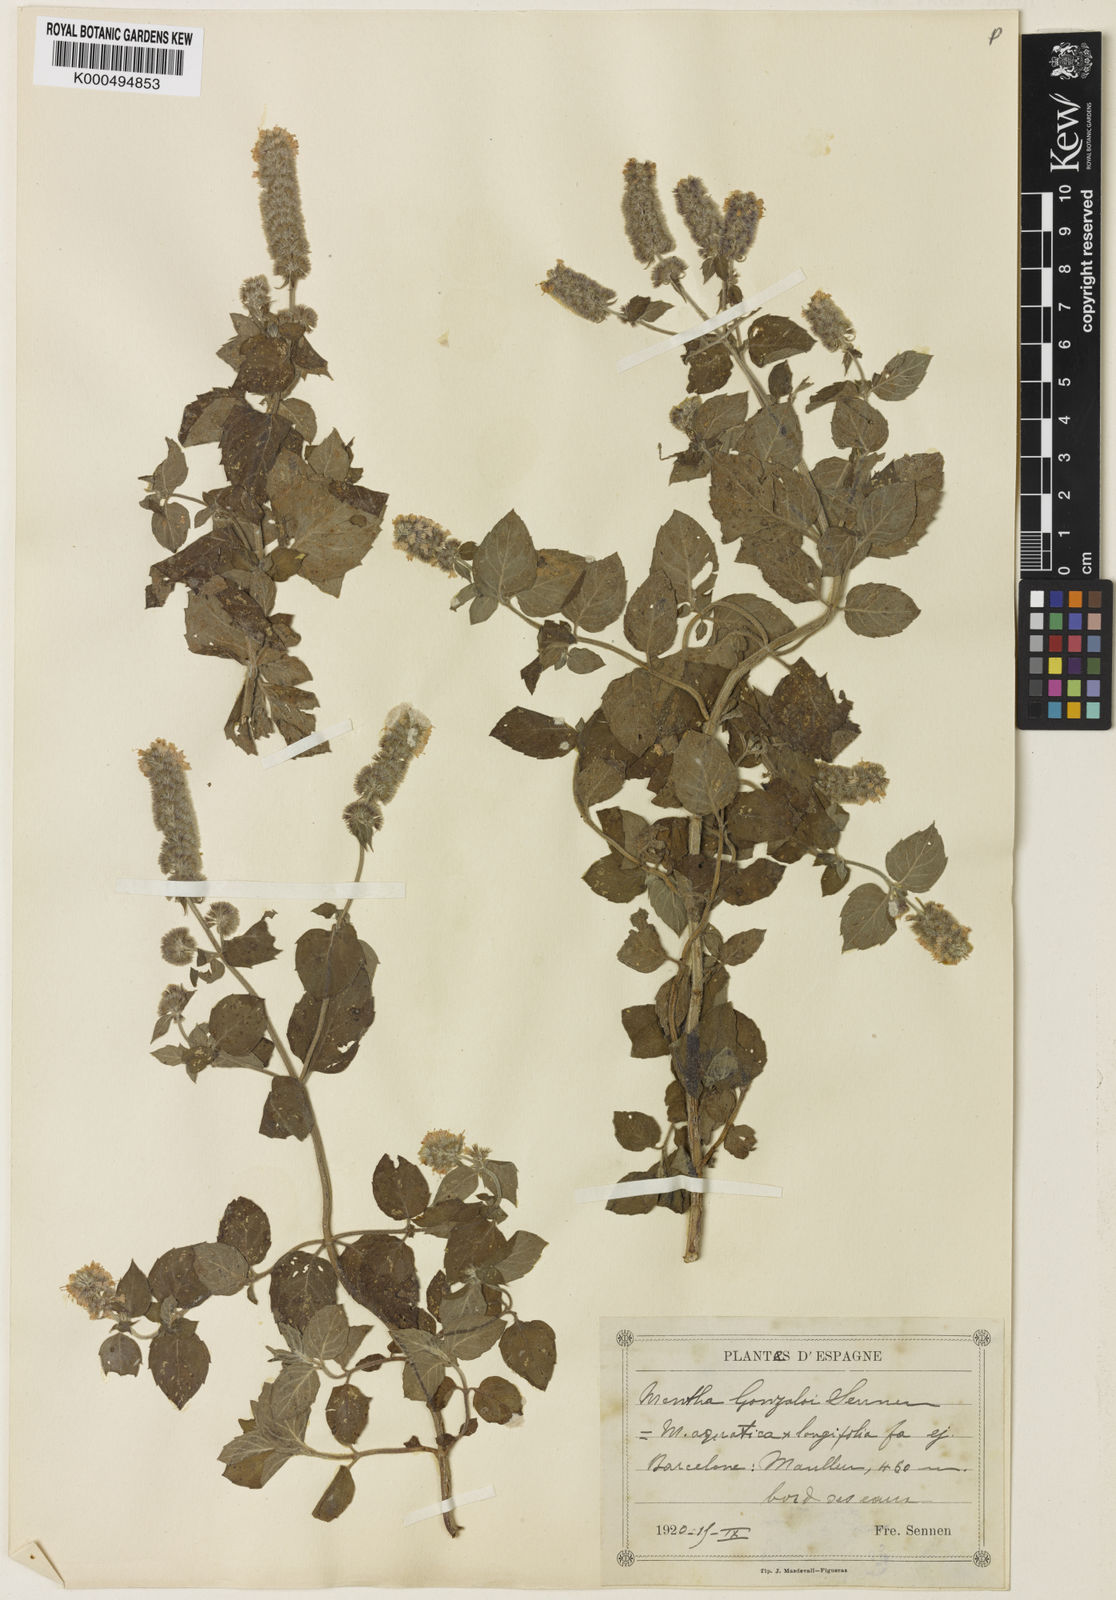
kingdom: Plantae
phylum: Tracheophyta
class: Magnoliopsida
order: Lamiales
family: Lamiaceae
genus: Mentha
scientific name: Mentha dumetorum
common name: Bush-loving mint
